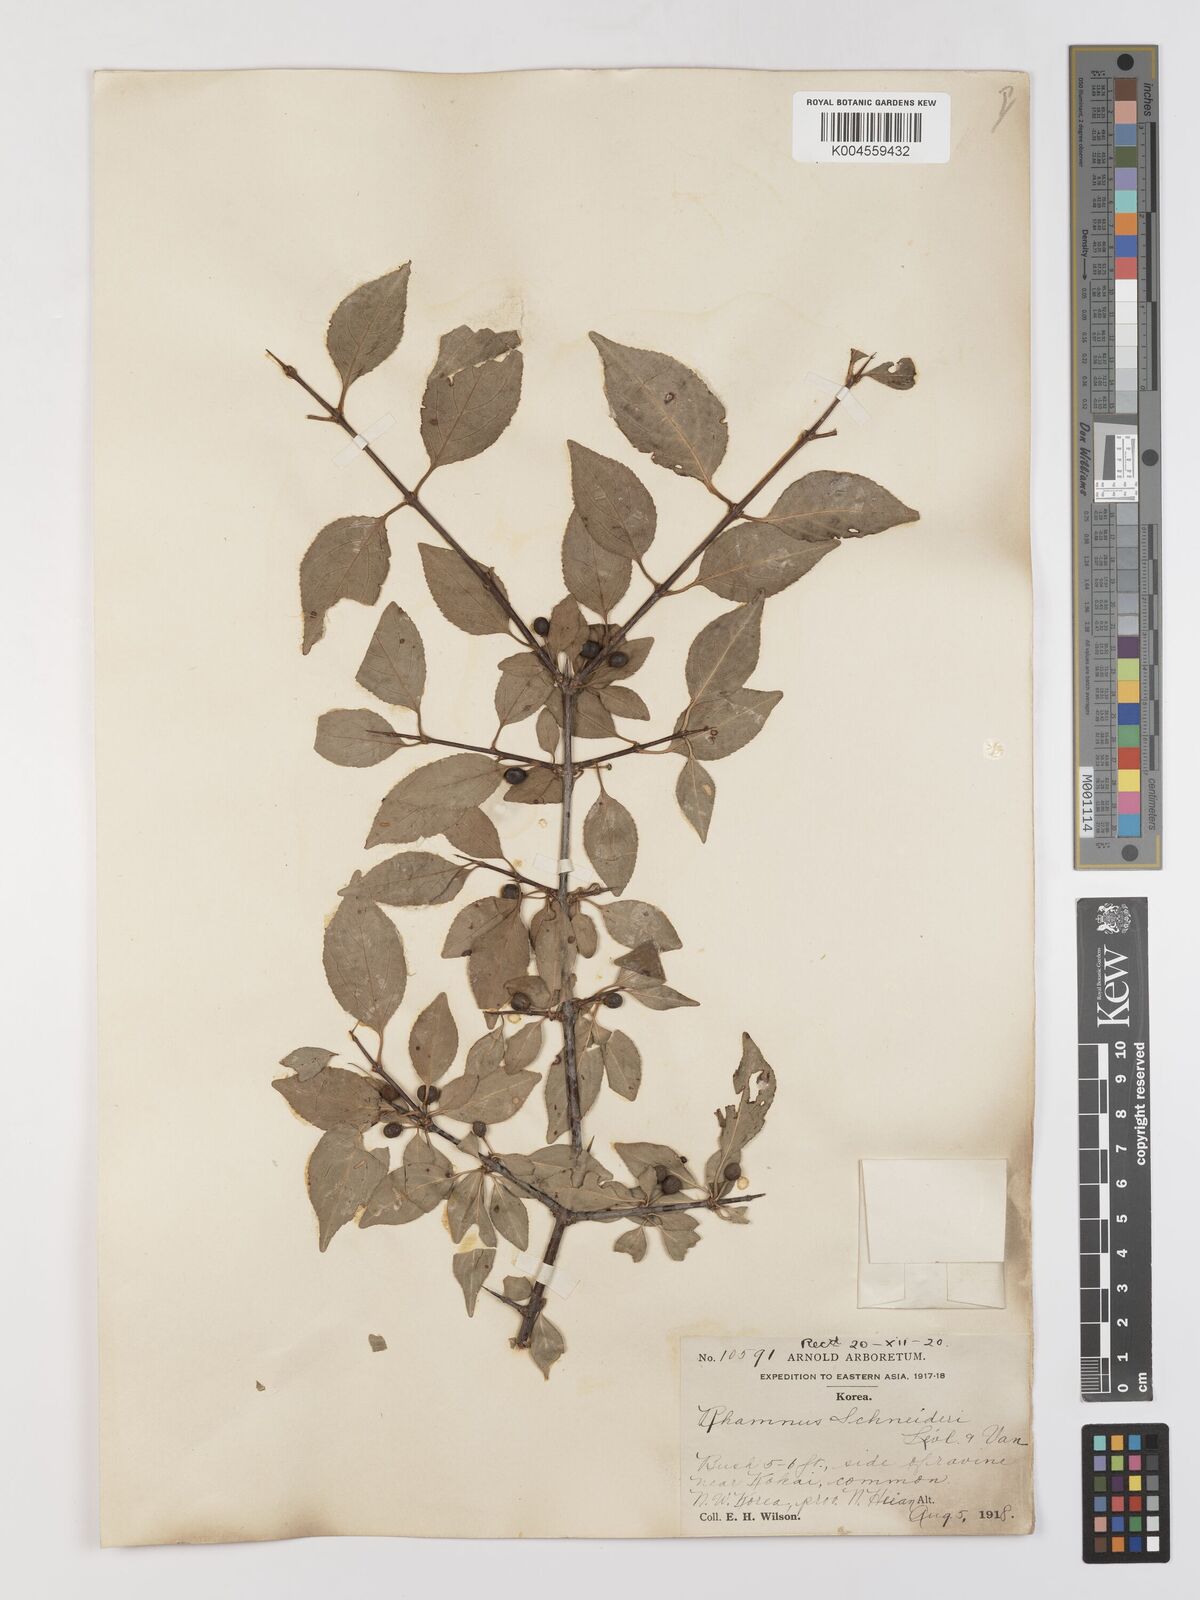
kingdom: Plantae
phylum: Tracheophyta
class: Magnoliopsida
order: Rosales
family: Rhamnaceae
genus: Rhamnus
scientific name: Rhamnus schneideri
